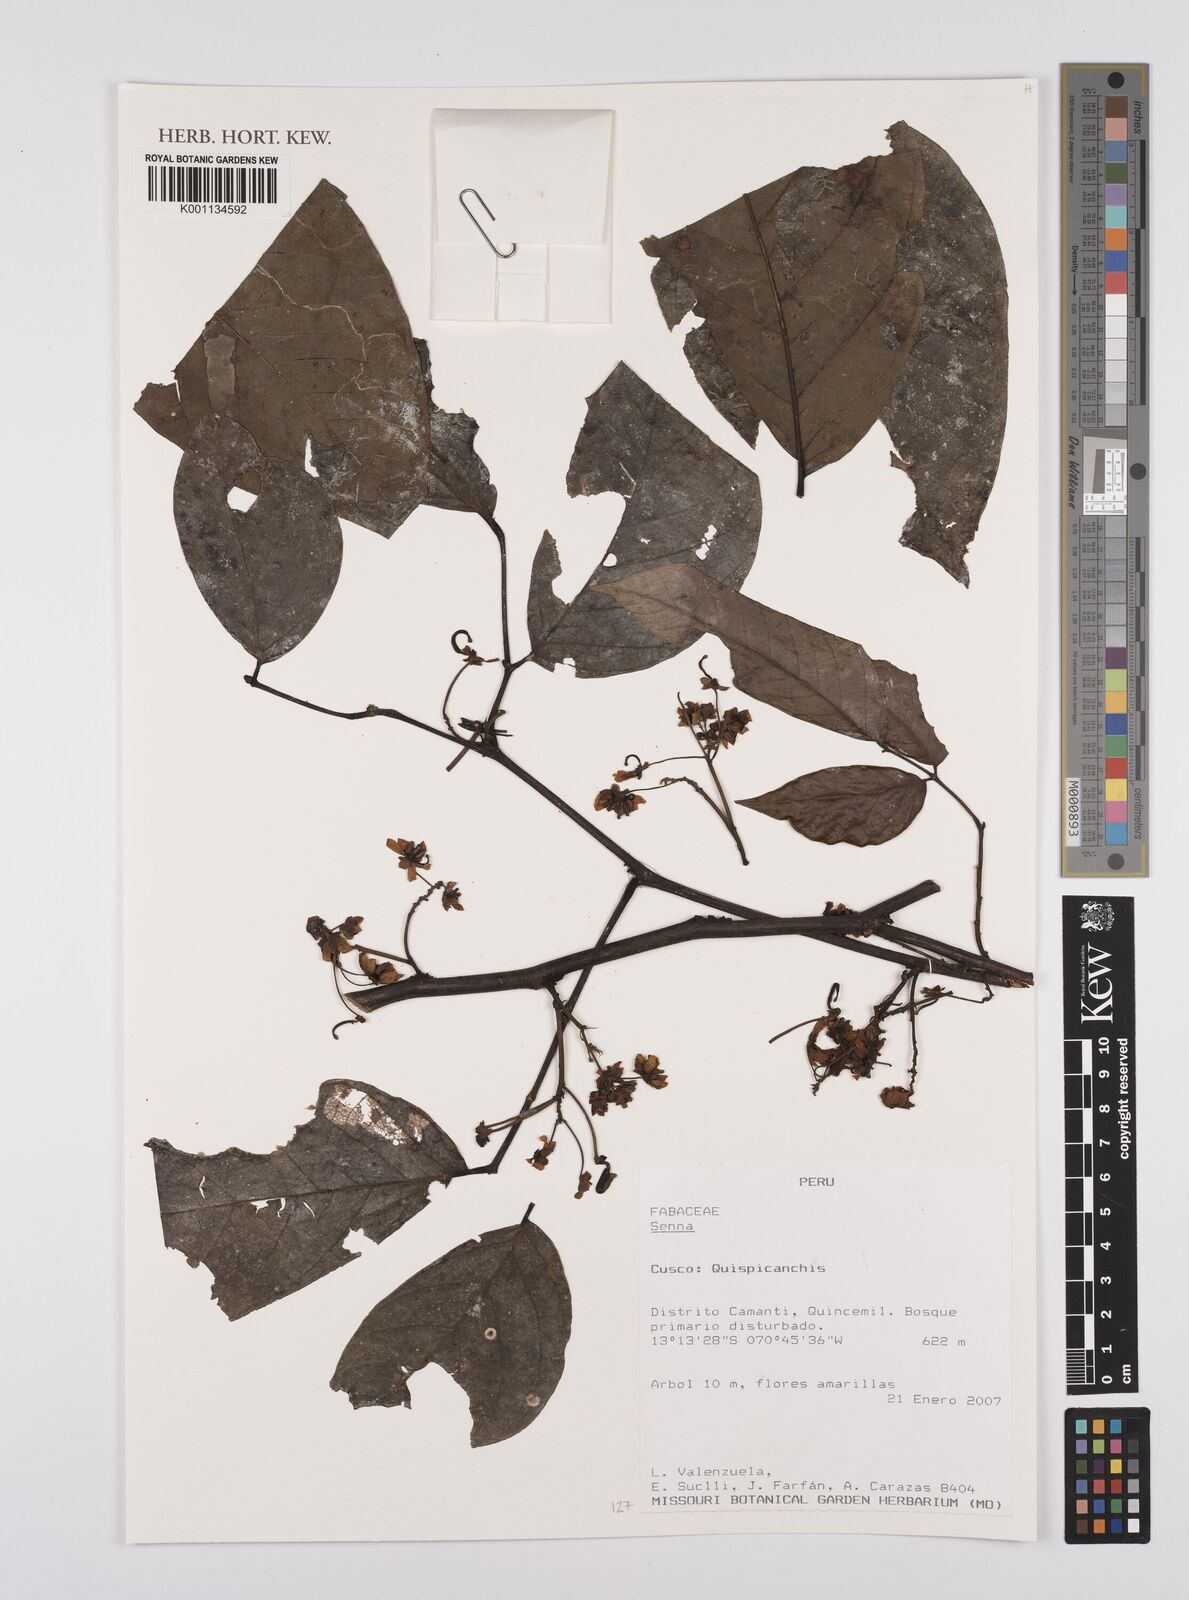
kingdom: Plantae
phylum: Tracheophyta
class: Magnoliopsida
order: Fabales
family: Fabaceae
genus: Senna
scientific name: Senna
